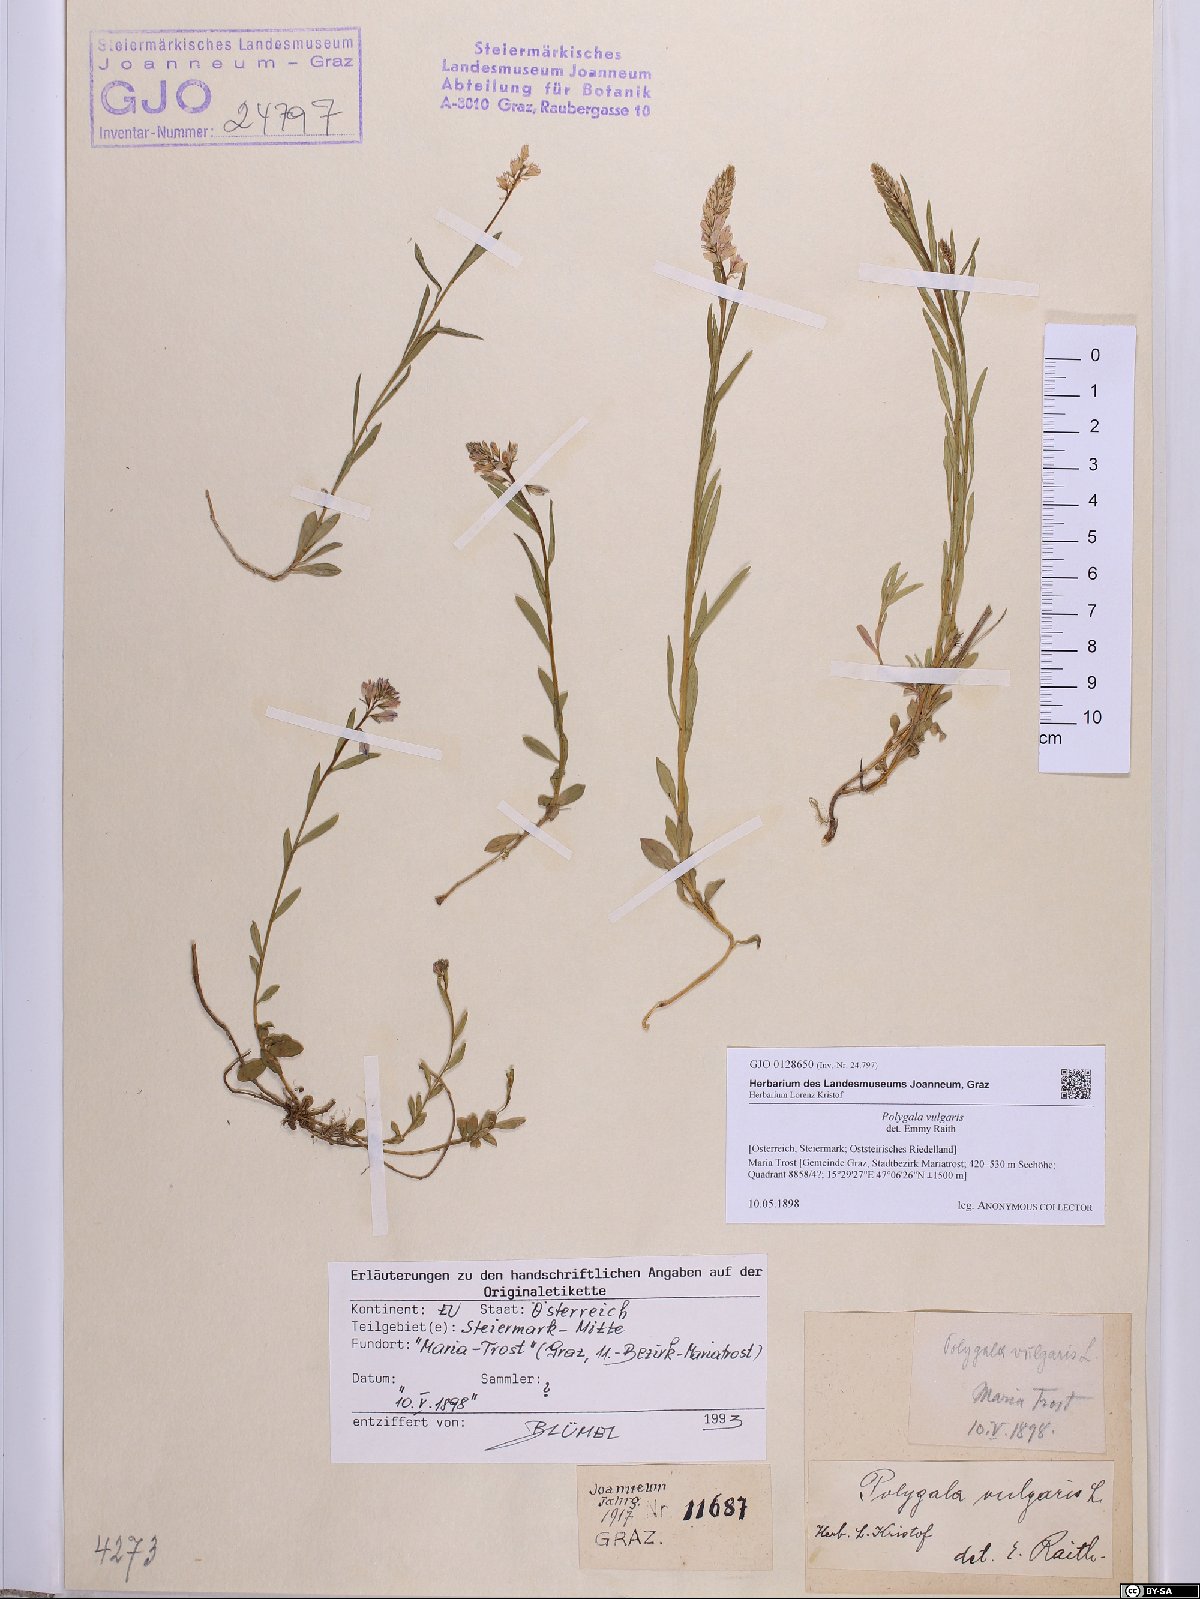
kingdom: Plantae
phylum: Tracheophyta
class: Magnoliopsida
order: Fabales
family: Polygalaceae
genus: Polygala
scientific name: Polygala vulgaris
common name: Common milkwort
